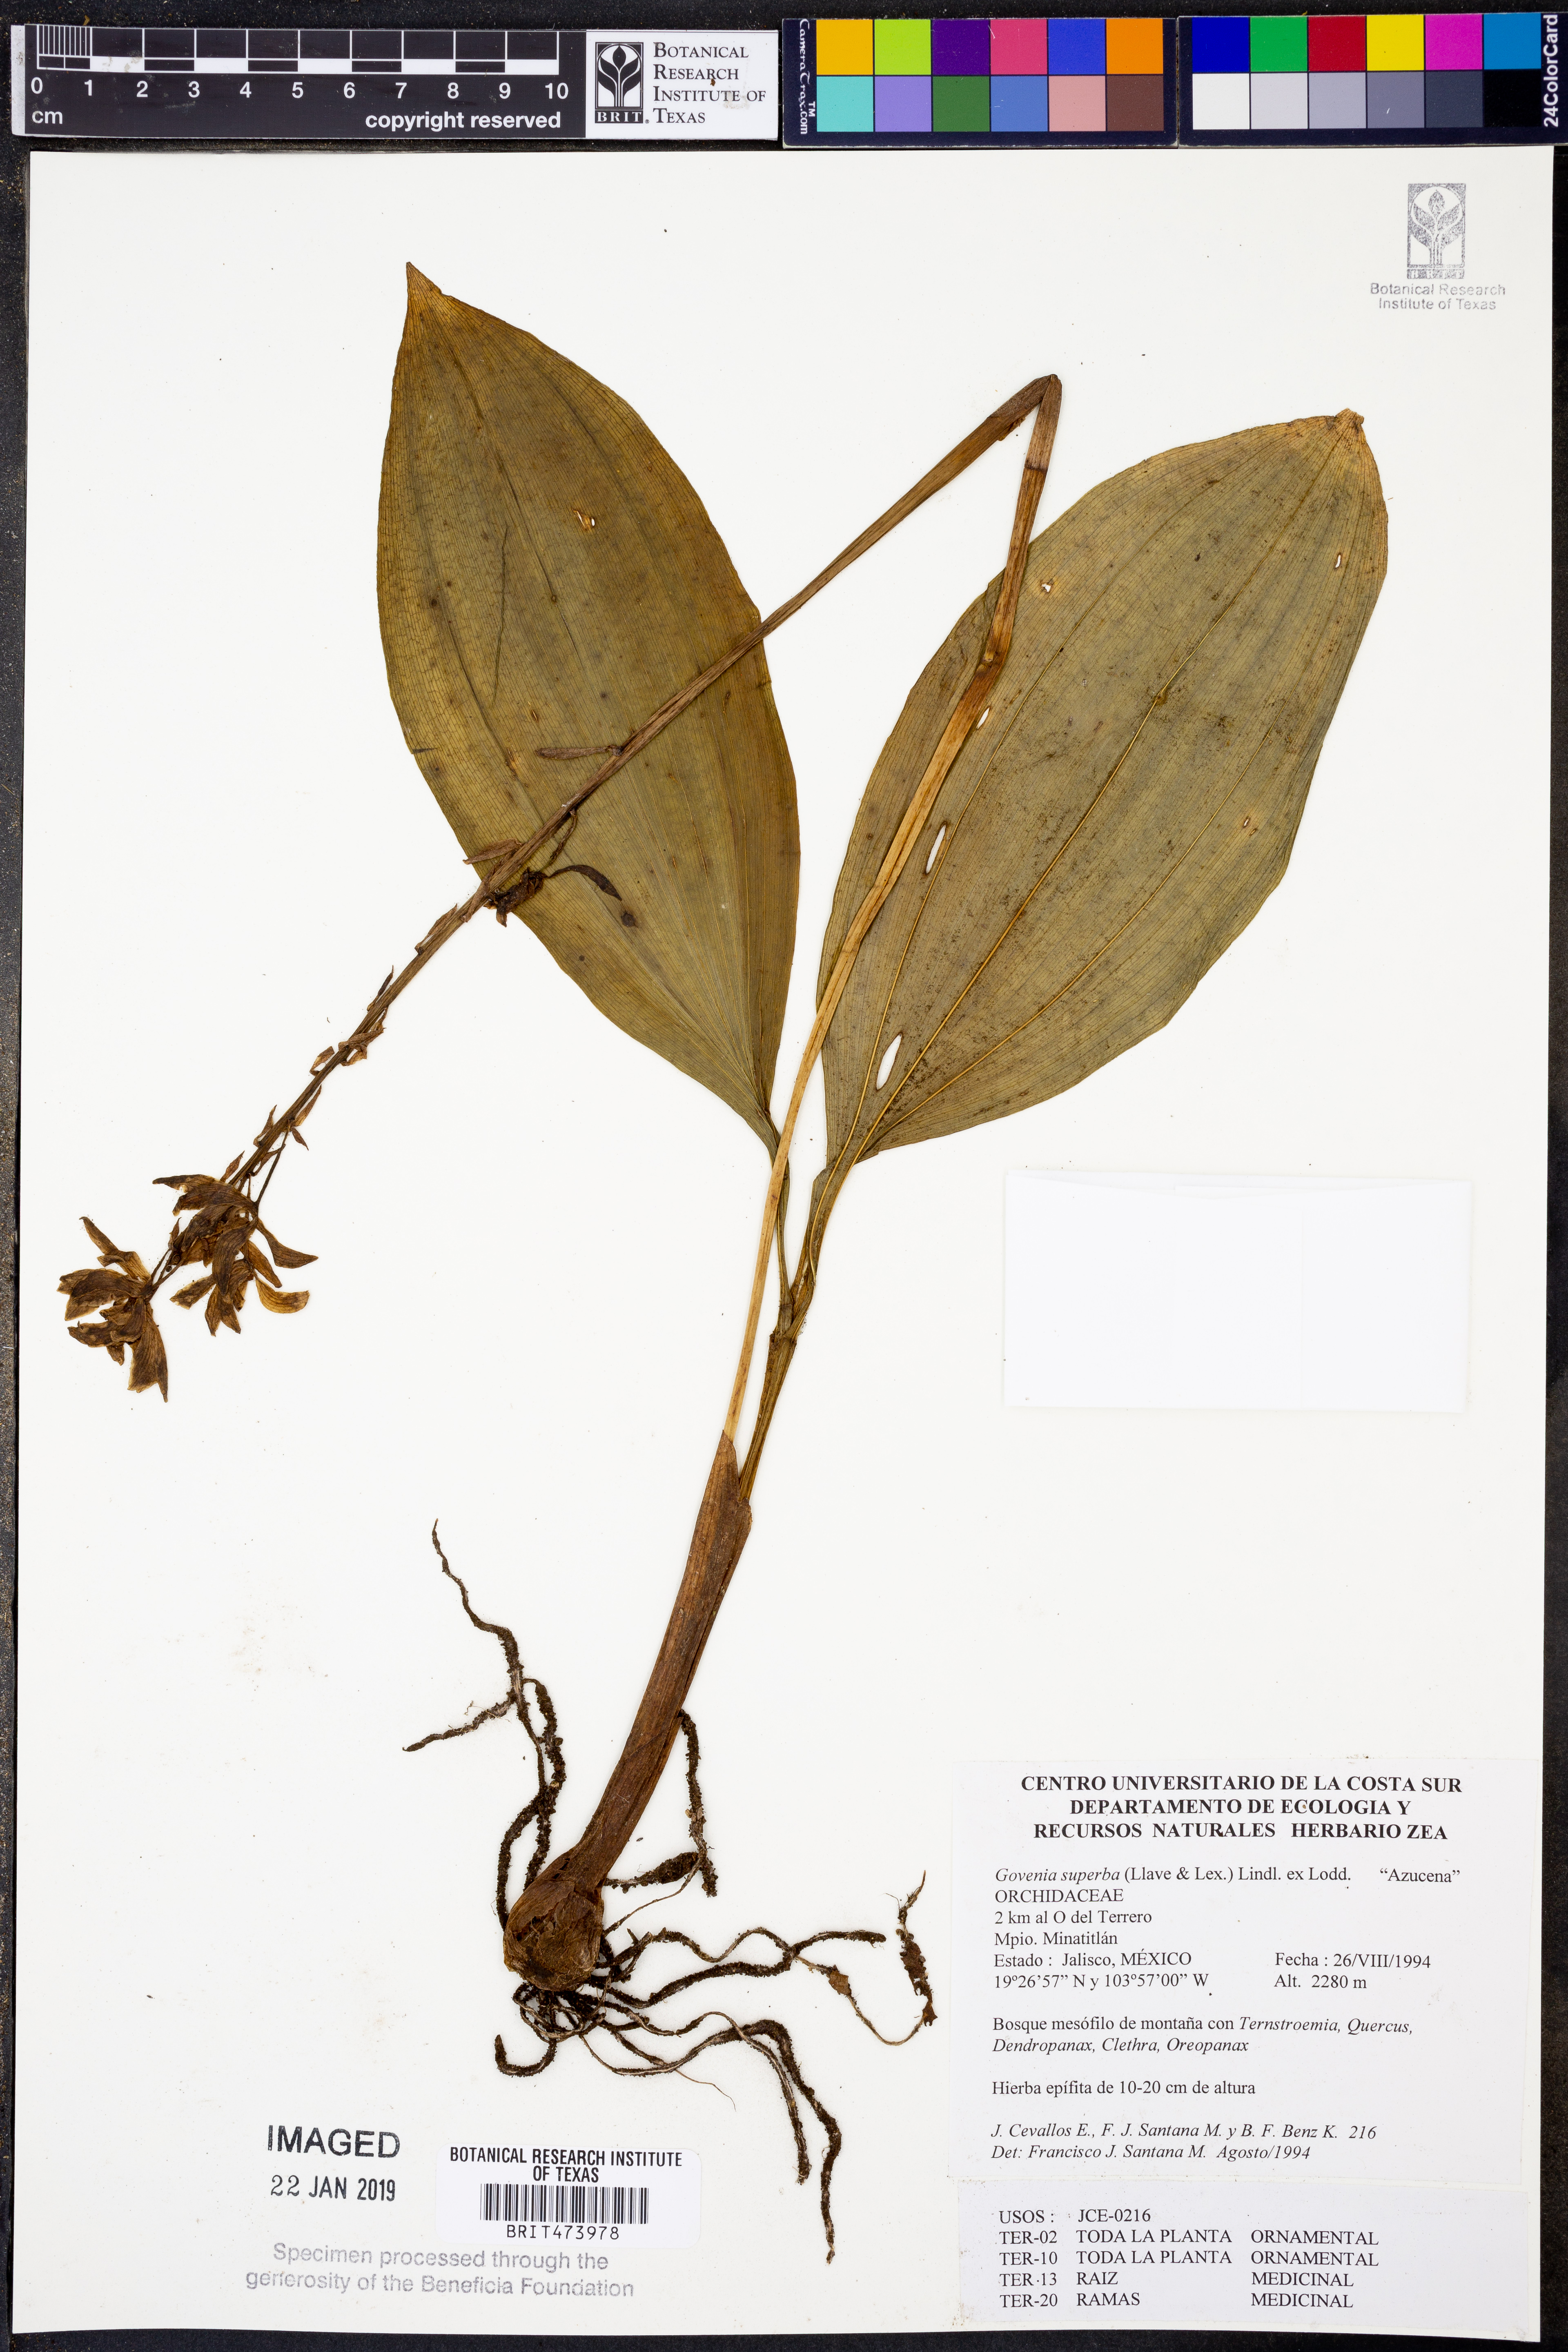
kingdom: Plantae
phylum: Tracheophyta
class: Liliopsida
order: Asparagales
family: Orchidaceae
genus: Govenia
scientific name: Govenia superba
